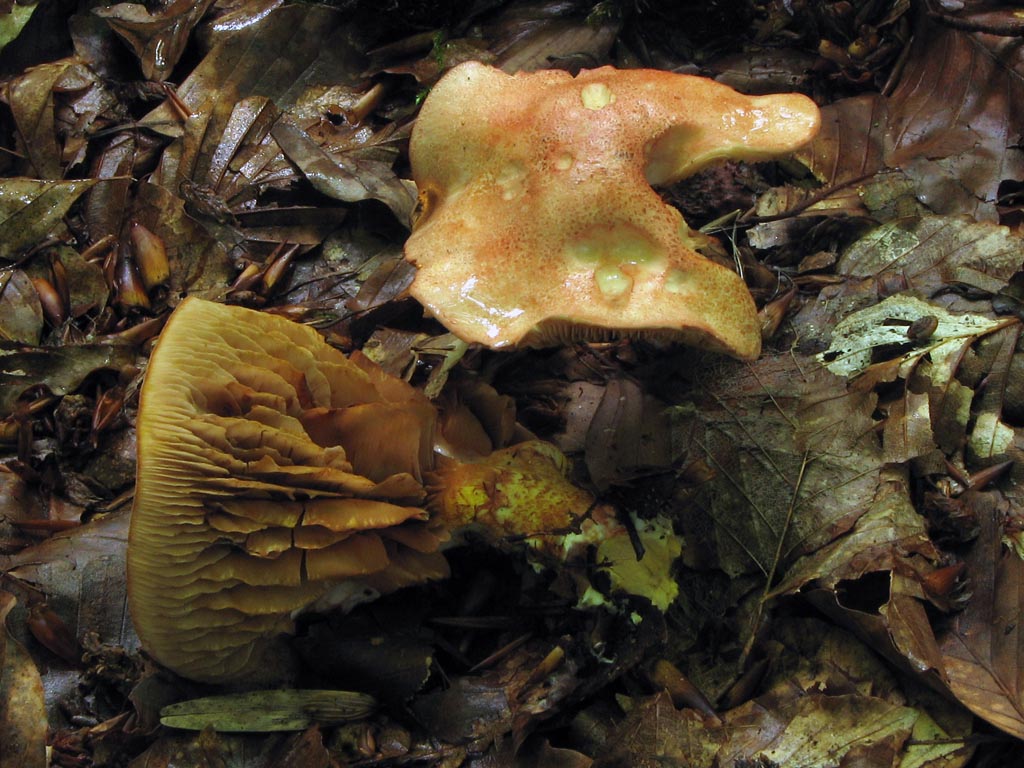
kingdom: Fungi
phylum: Basidiomycota
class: Agaricomycetes
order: Agaricales
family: Cortinariaceae
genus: Cortinarius
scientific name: Cortinarius bolaris
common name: cinnoberskællet slørhat
